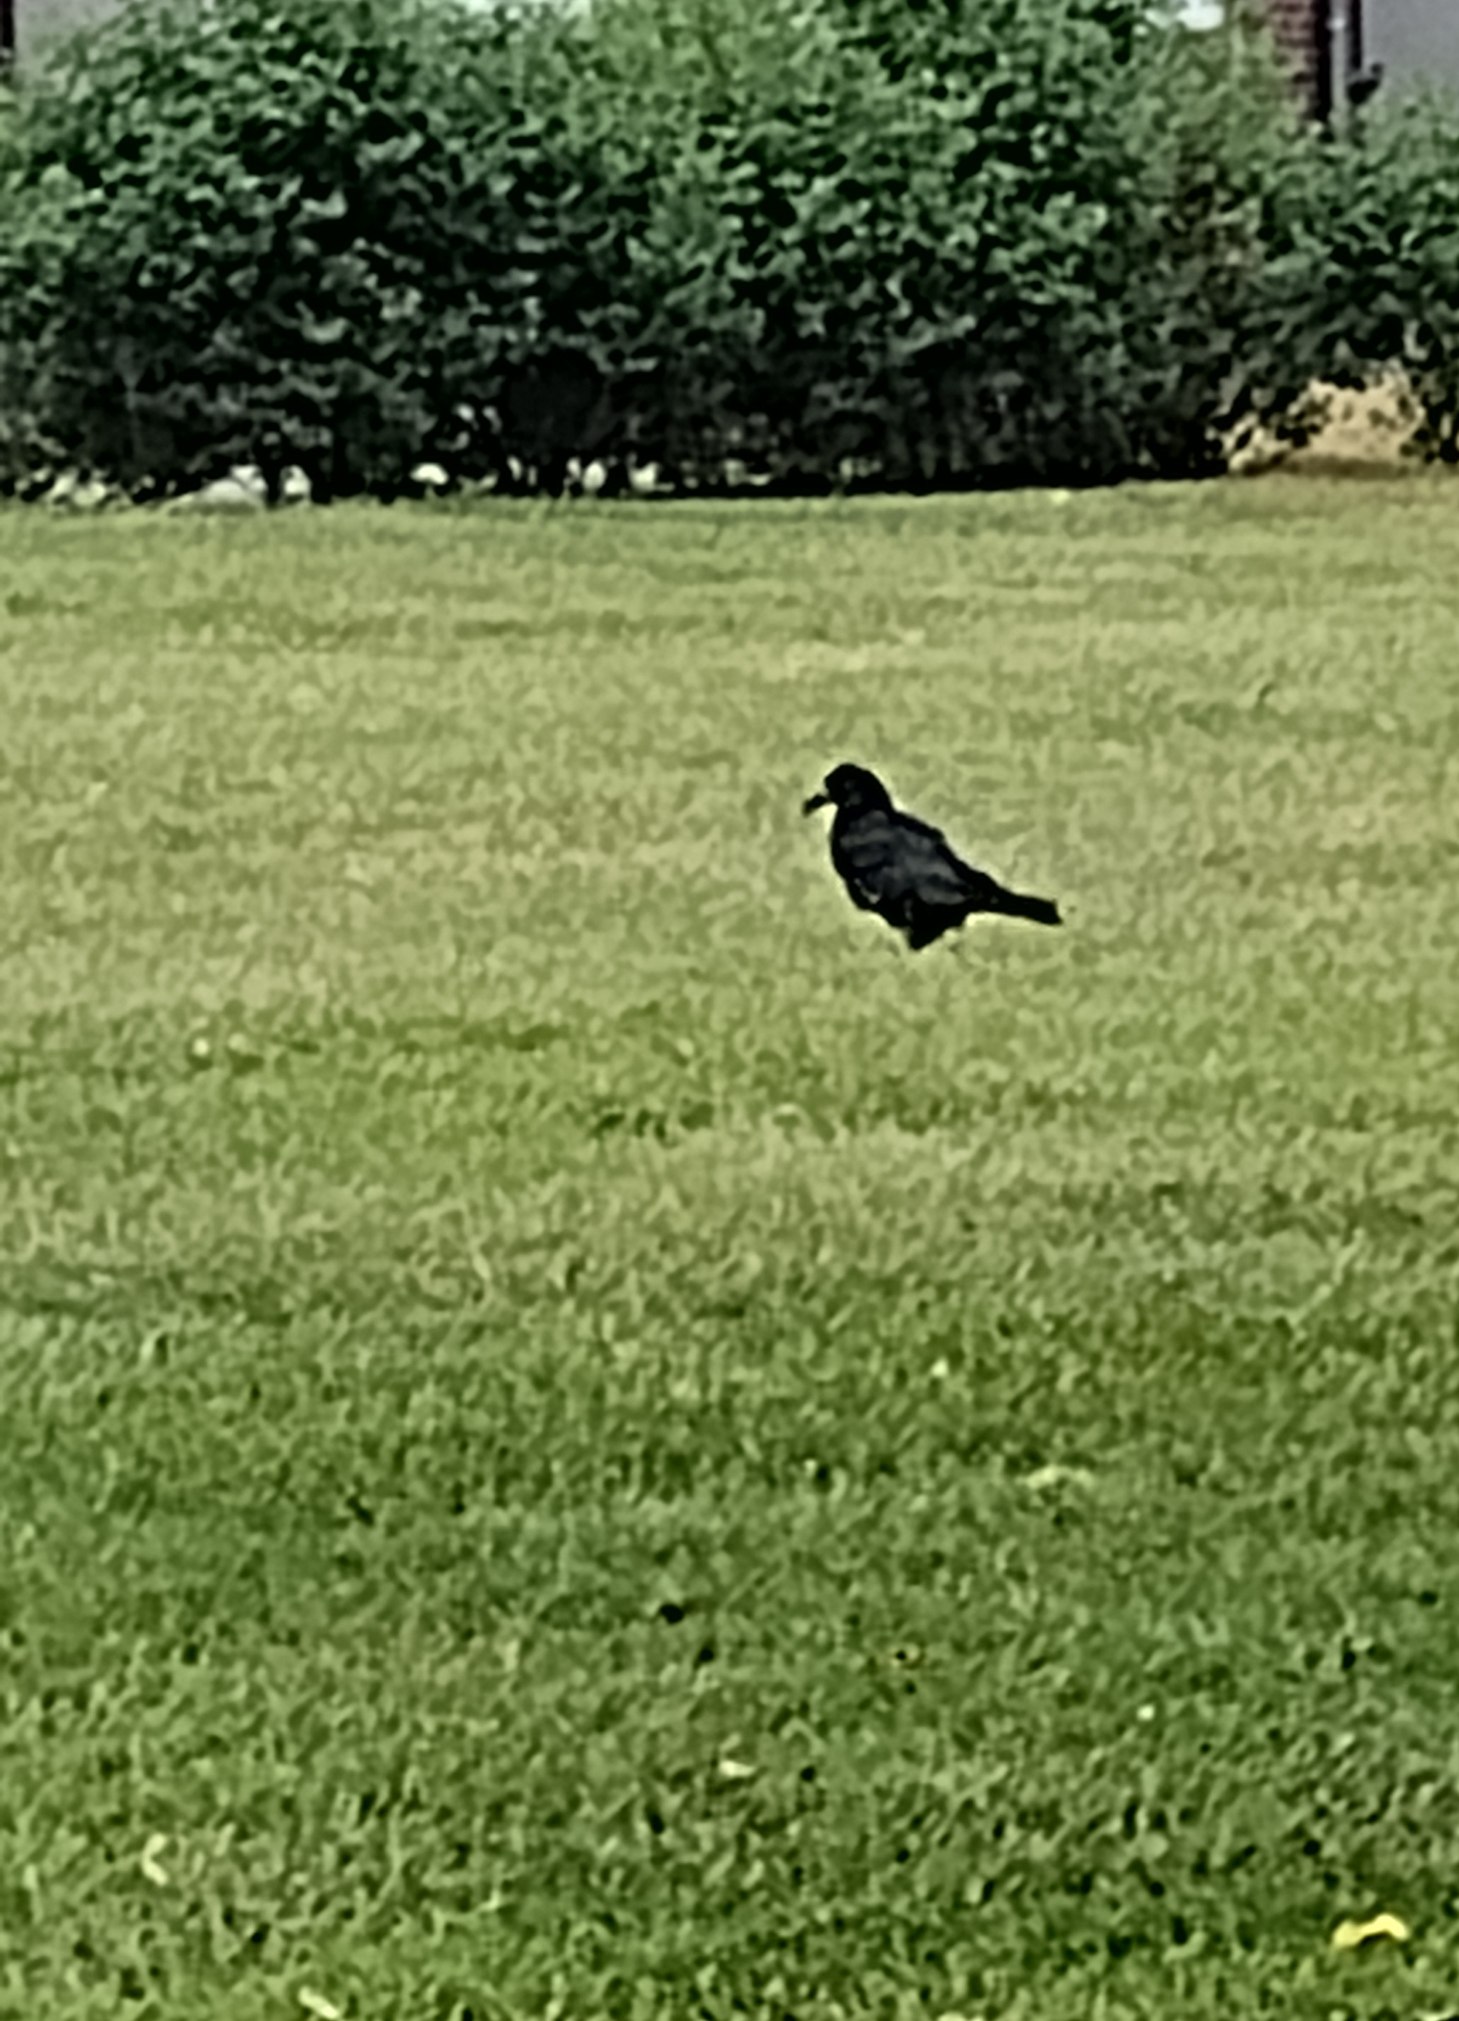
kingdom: Animalia
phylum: Chordata
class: Aves
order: Passeriformes
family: Corvidae
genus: Corvus
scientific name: Corvus frugilegus
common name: Råge
